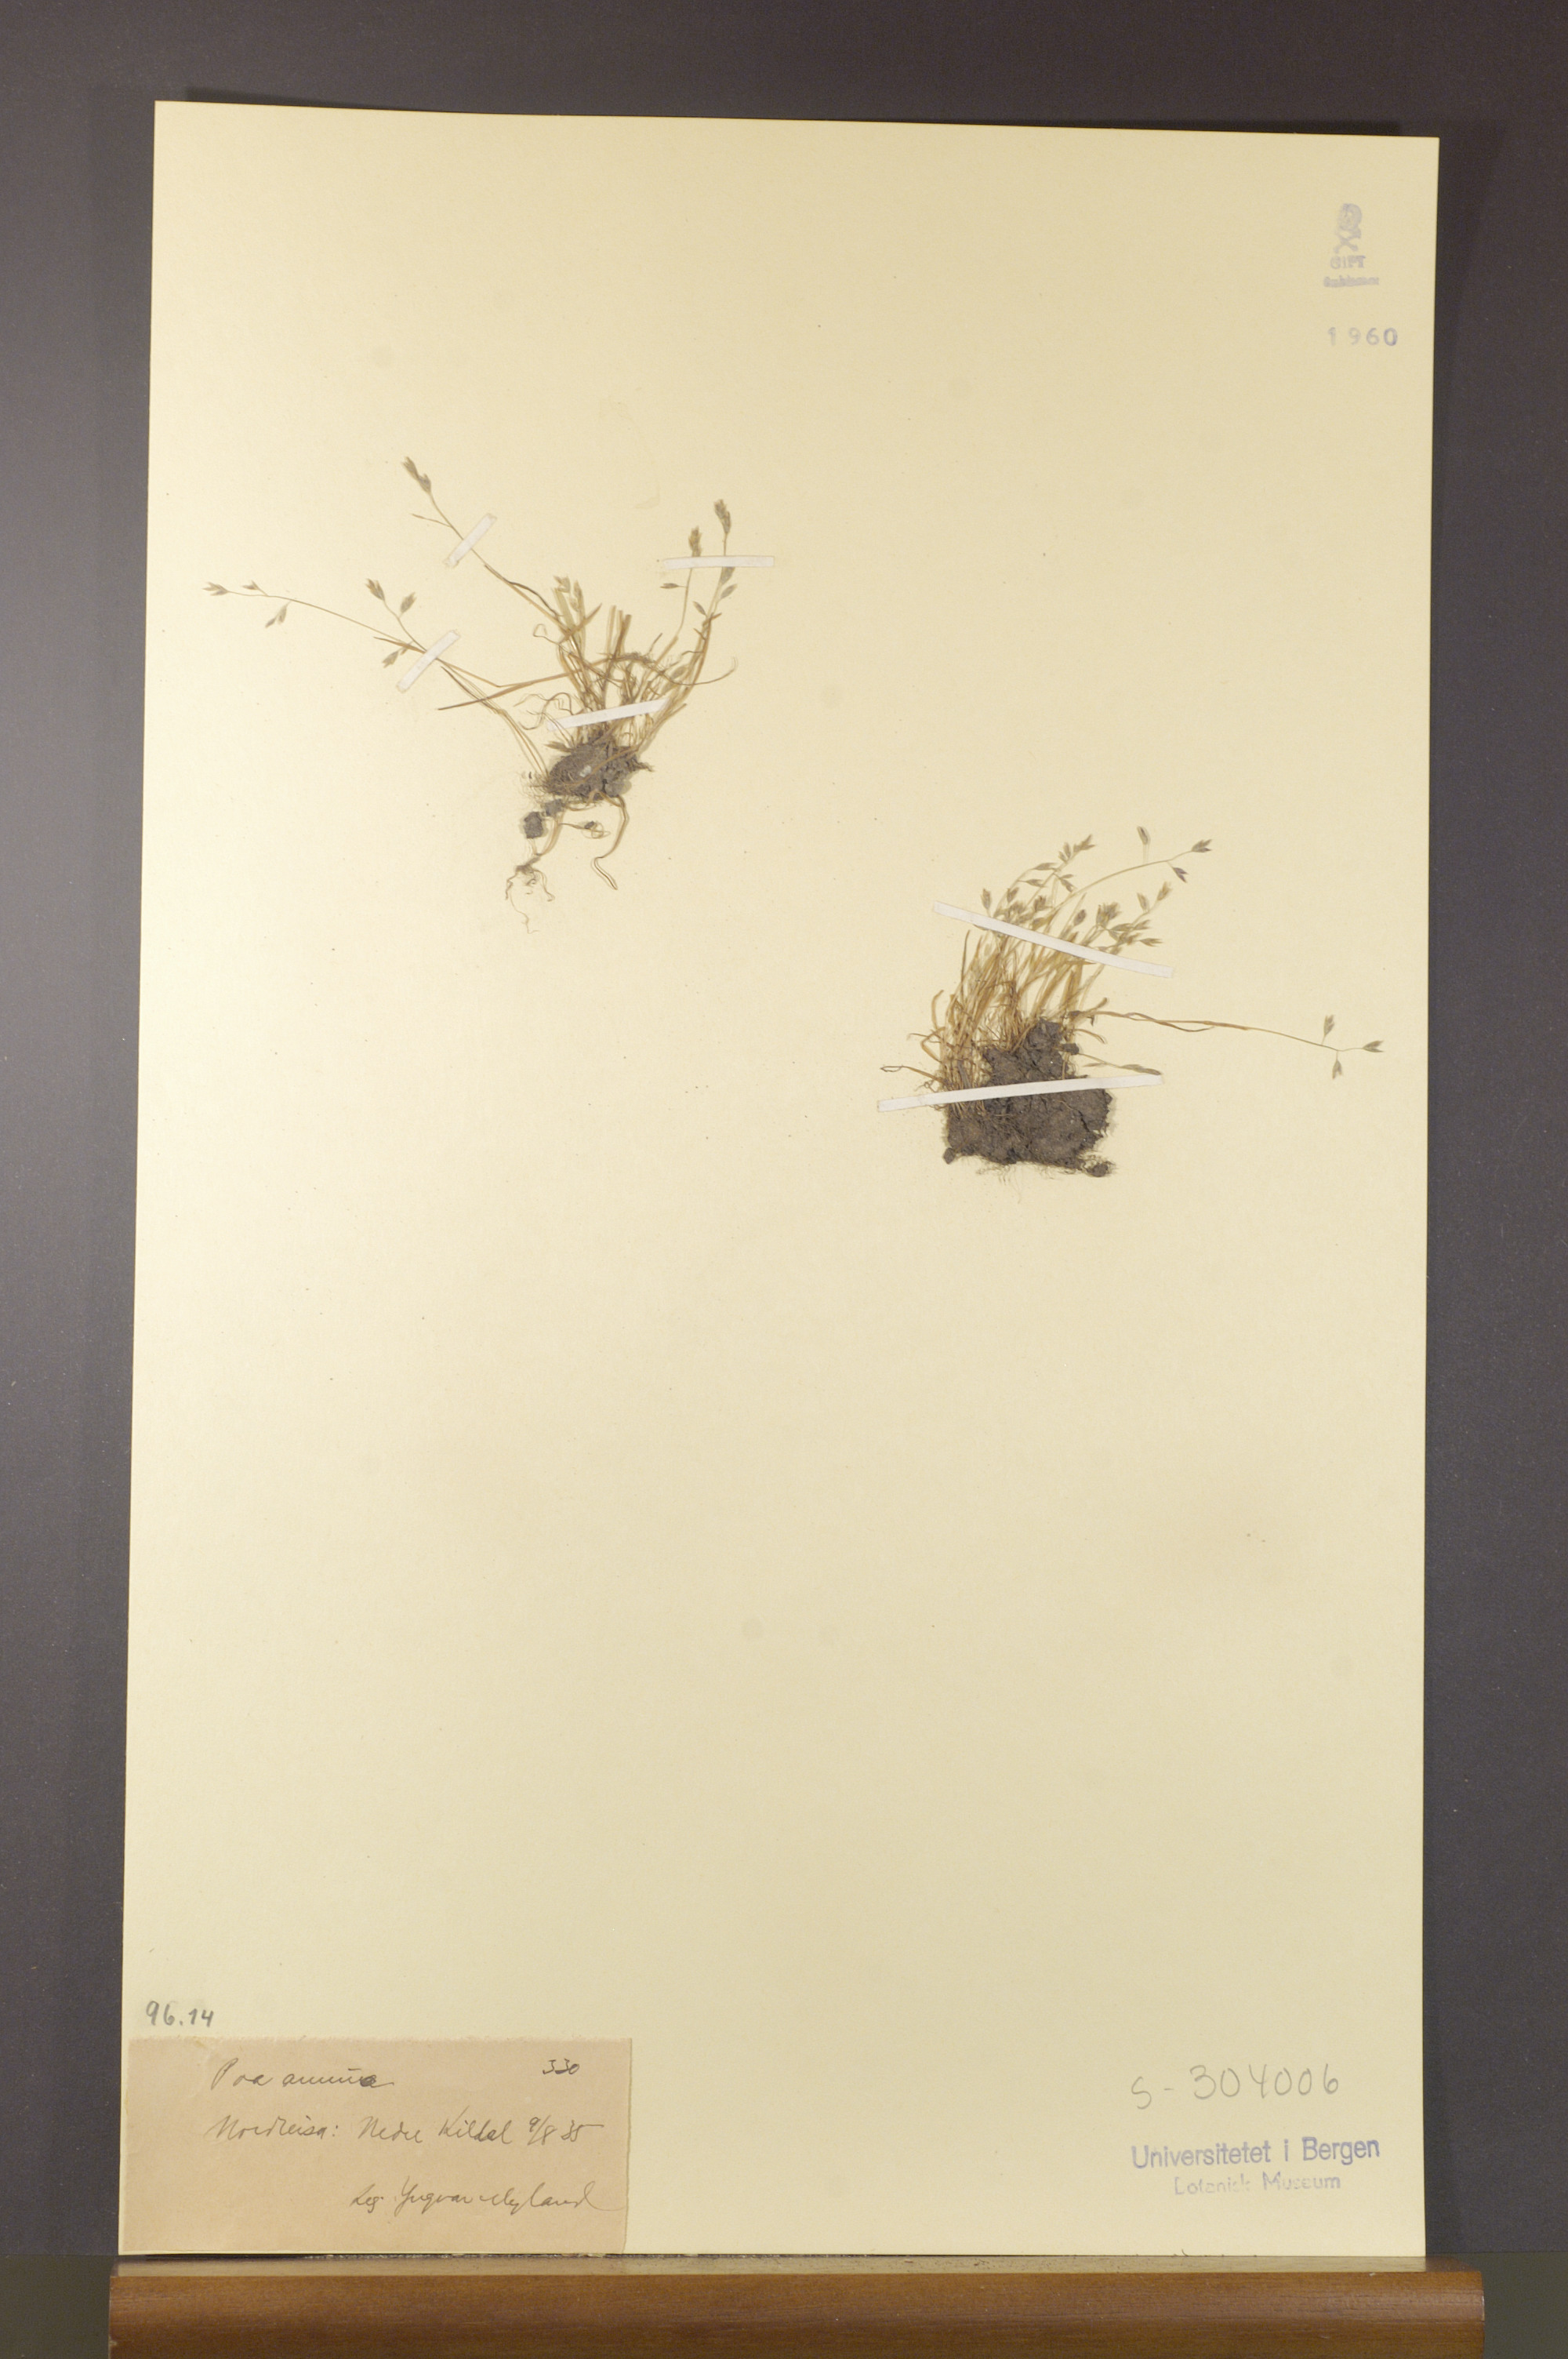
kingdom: Plantae
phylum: Tracheophyta
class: Liliopsida
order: Poales
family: Poaceae
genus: Poa
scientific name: Poa annua
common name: Annual bluegrass
